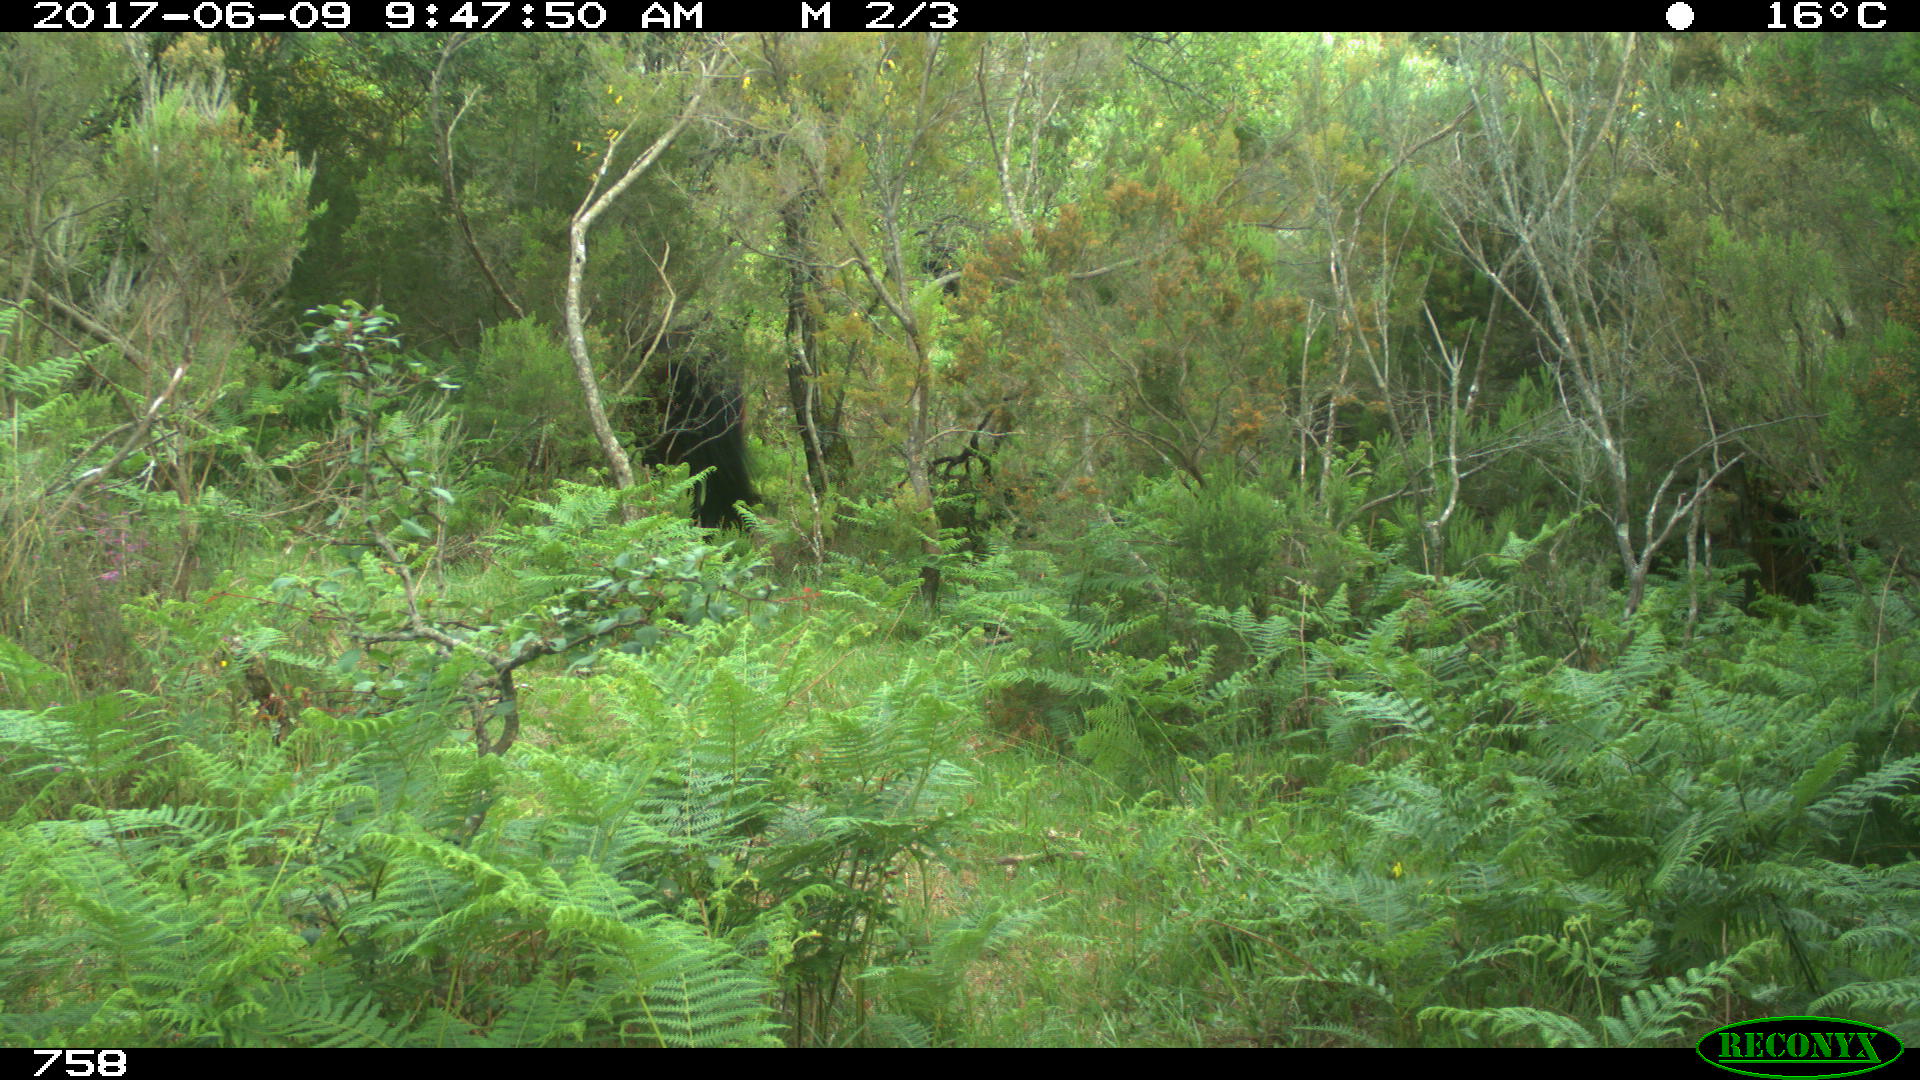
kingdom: Animalia
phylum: Chordata
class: Mammalia
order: Perissodactyla
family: Equidae
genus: Equus
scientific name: Equus caballus
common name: Horse
